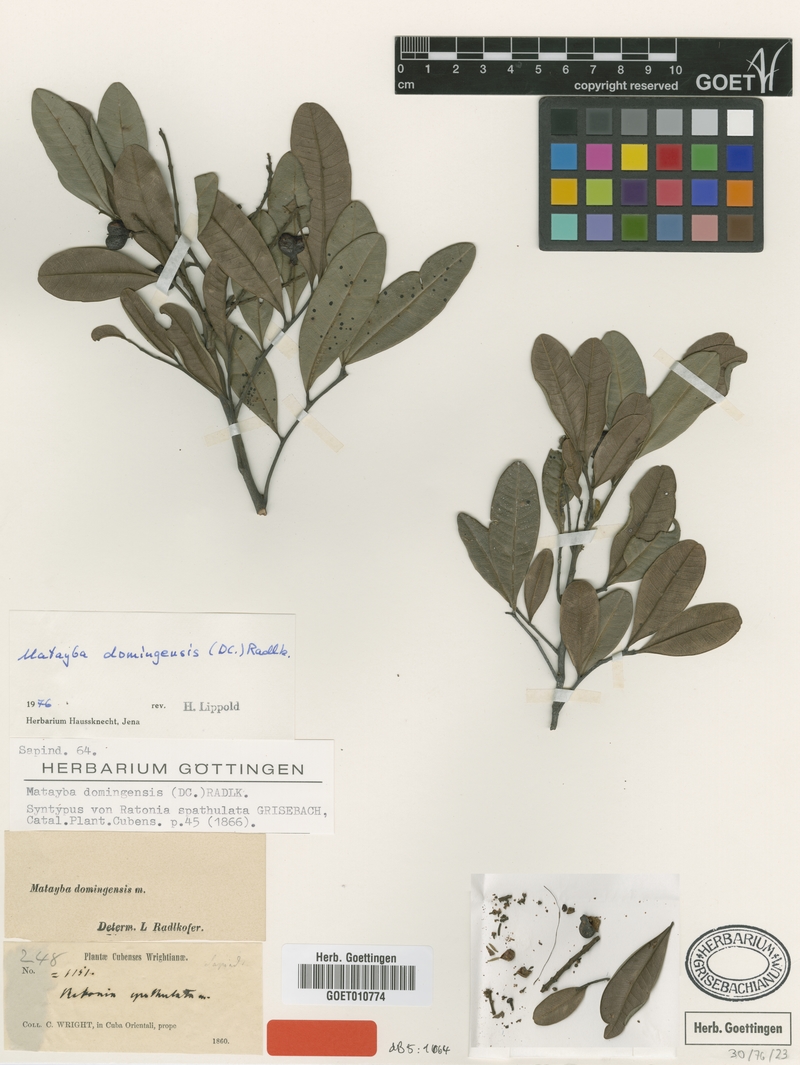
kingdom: Plantae
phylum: Tracheophyta
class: Magnoliopsida
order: Sapindales
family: Sapindaceae
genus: Matayba
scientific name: Matayba domingensis
